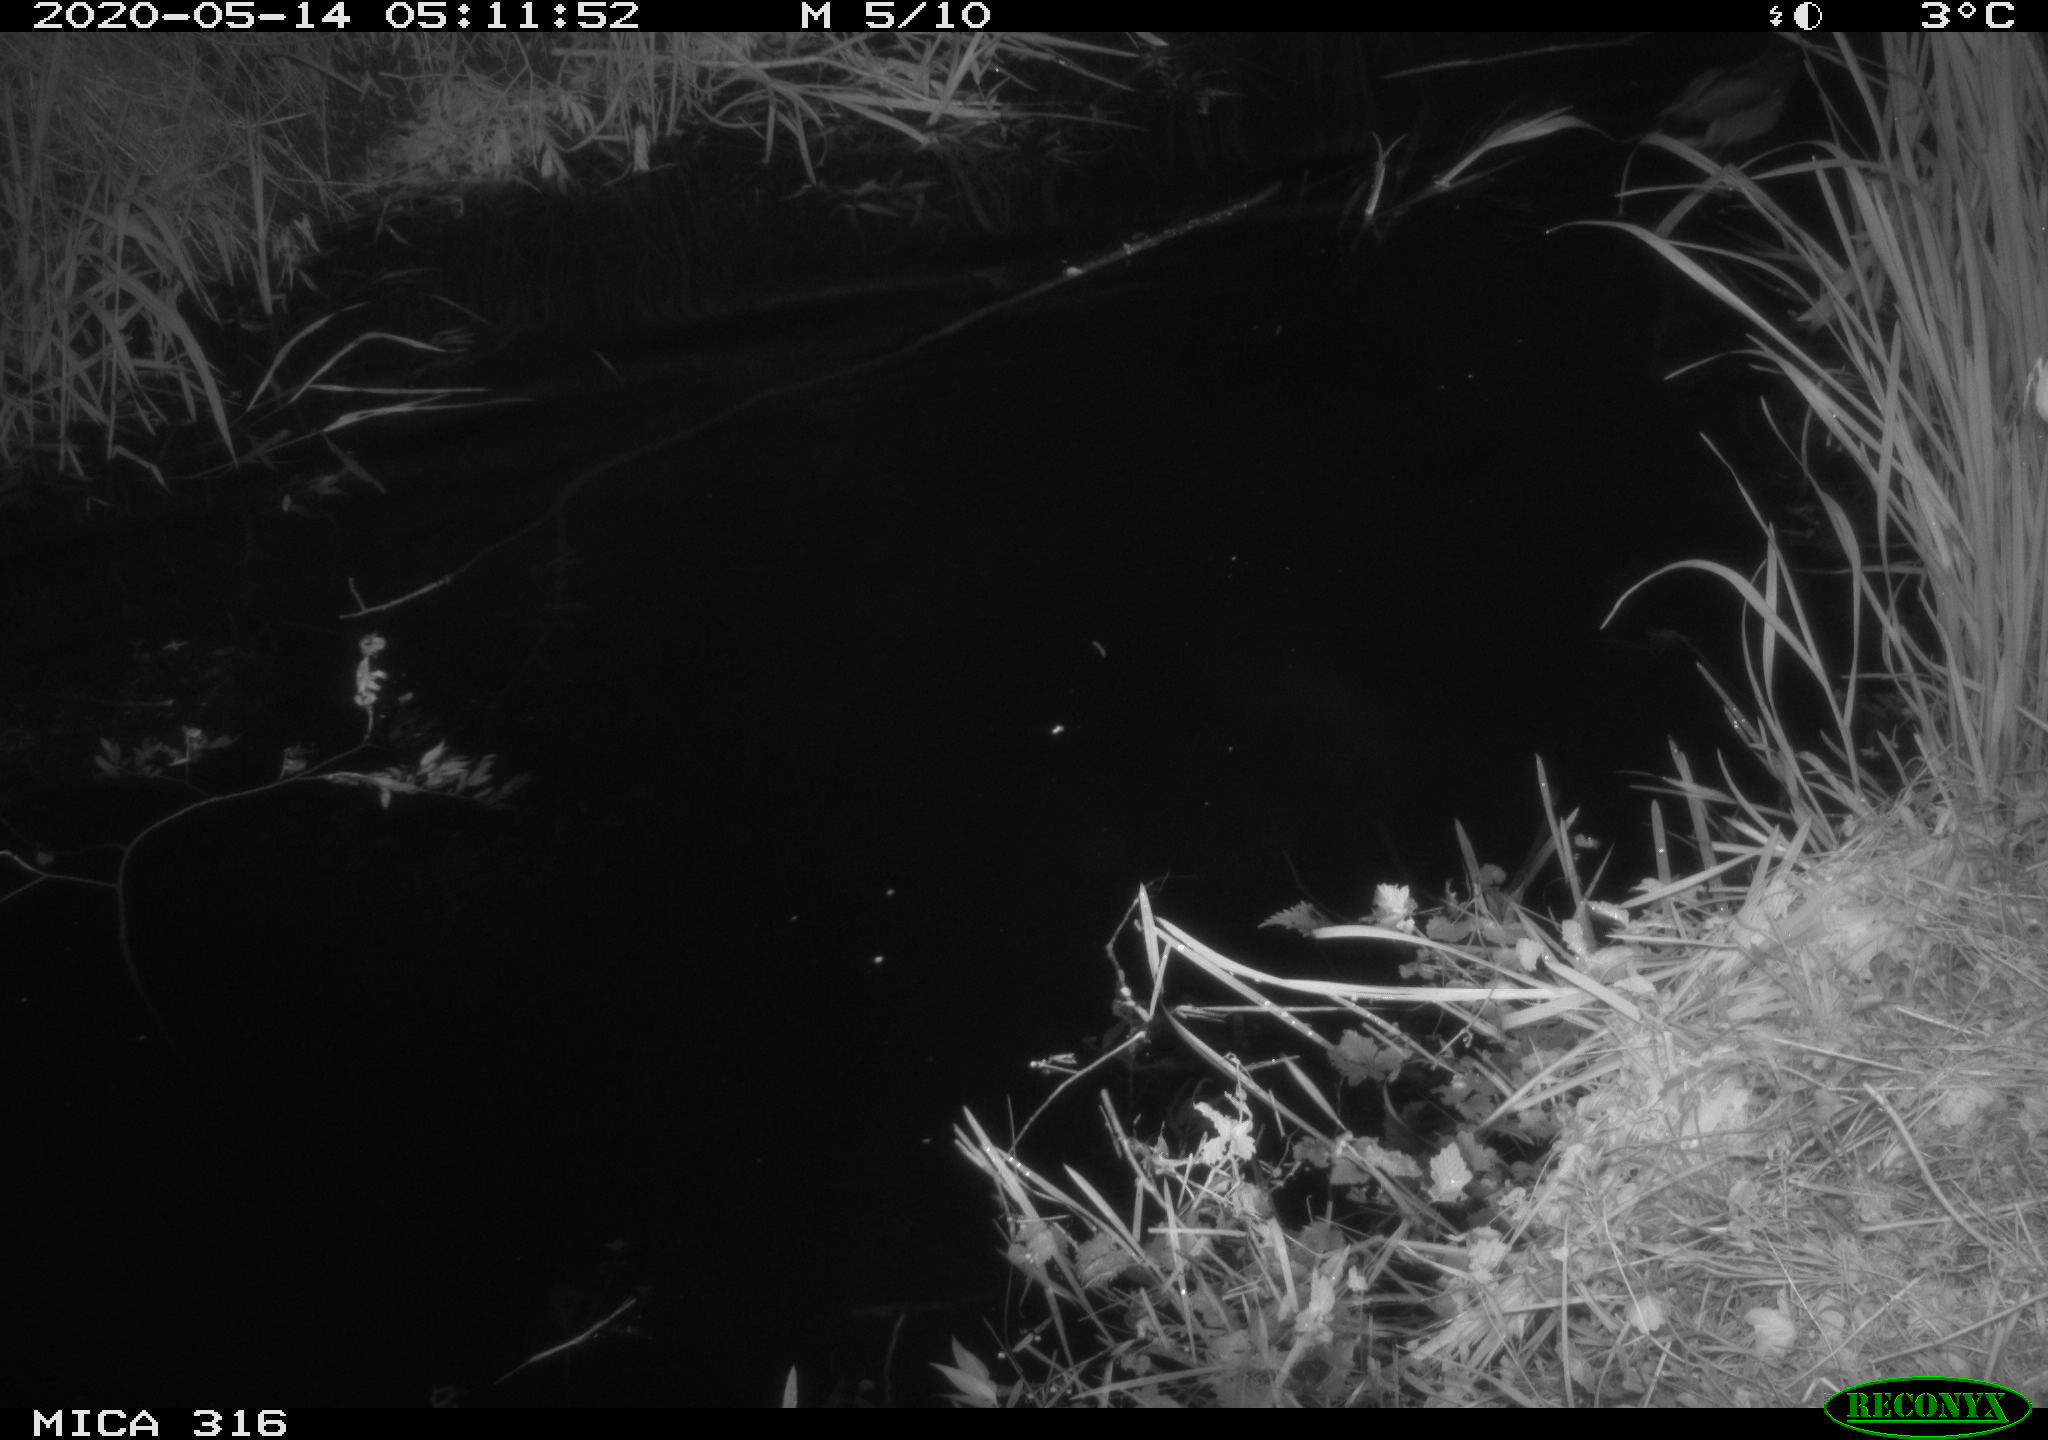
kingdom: Animalia
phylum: Chordata
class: Aves
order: Anseriformes
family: Anatidae
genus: Anas
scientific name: Anas platyrhynchos
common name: Mallard
